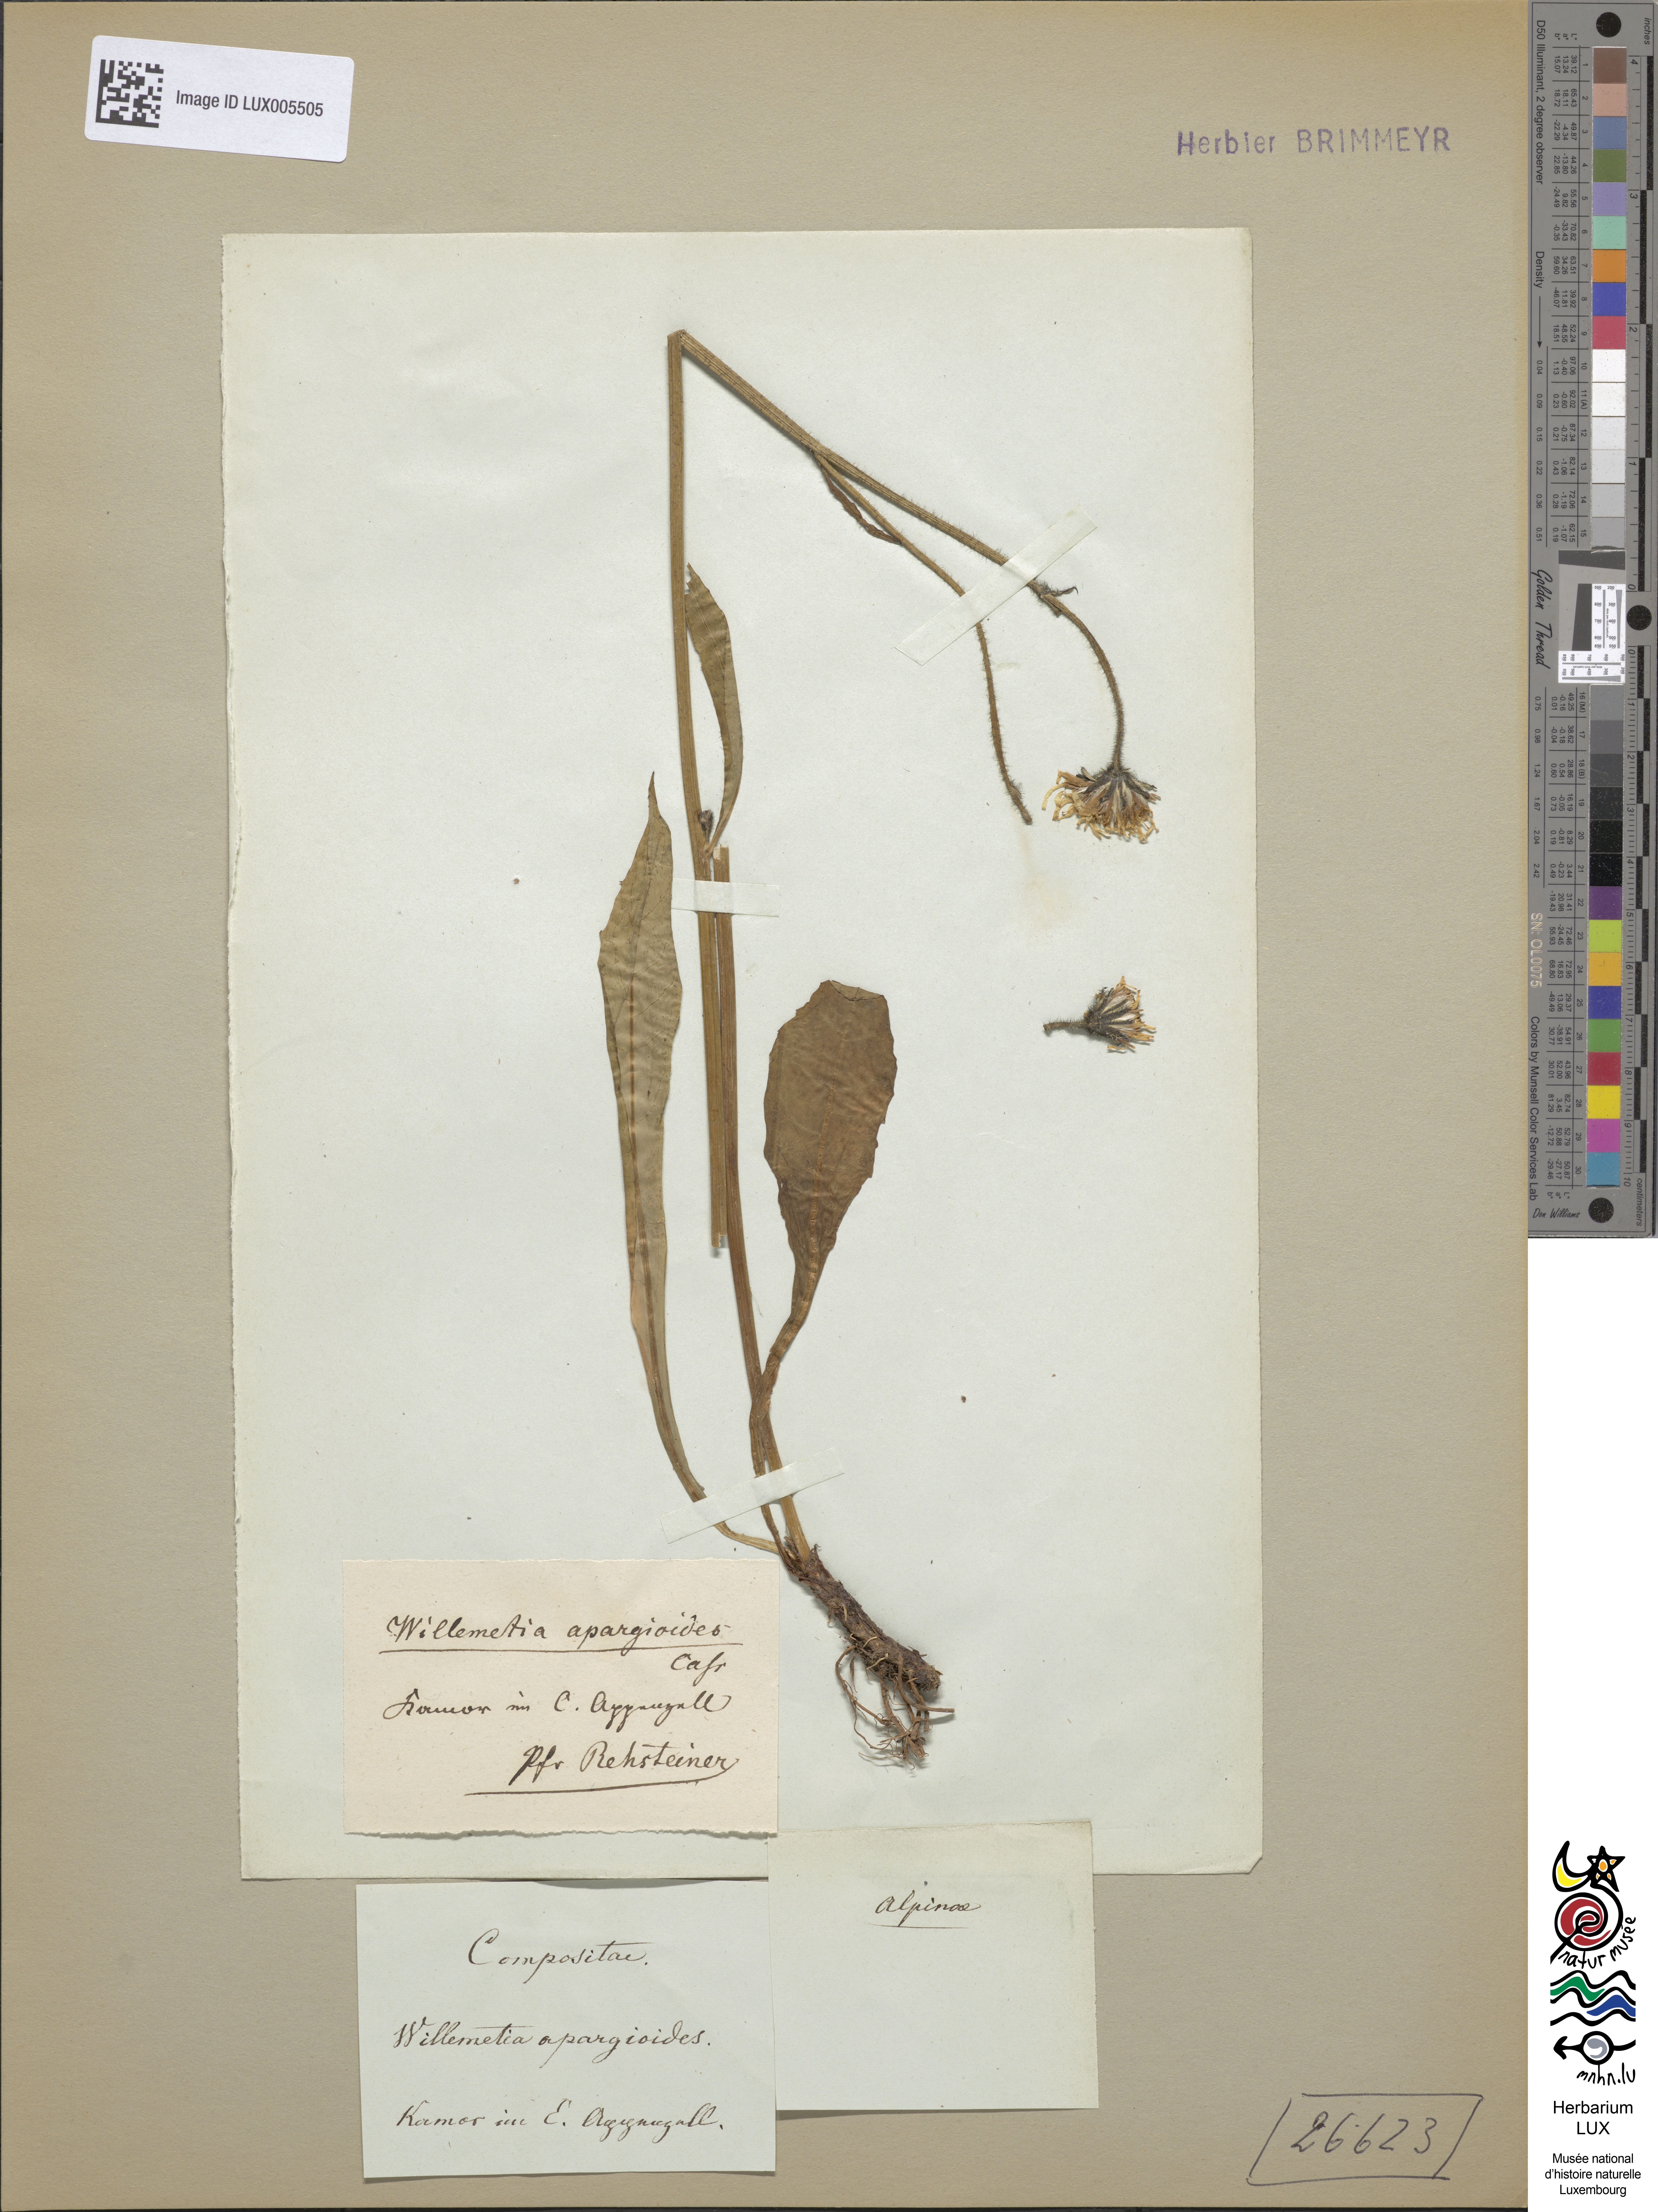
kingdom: Plantae
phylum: Tracheophyta
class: Magnoliopsida
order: Asterales
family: Asteraceae
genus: Willemetia
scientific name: Willemetia stipitata
